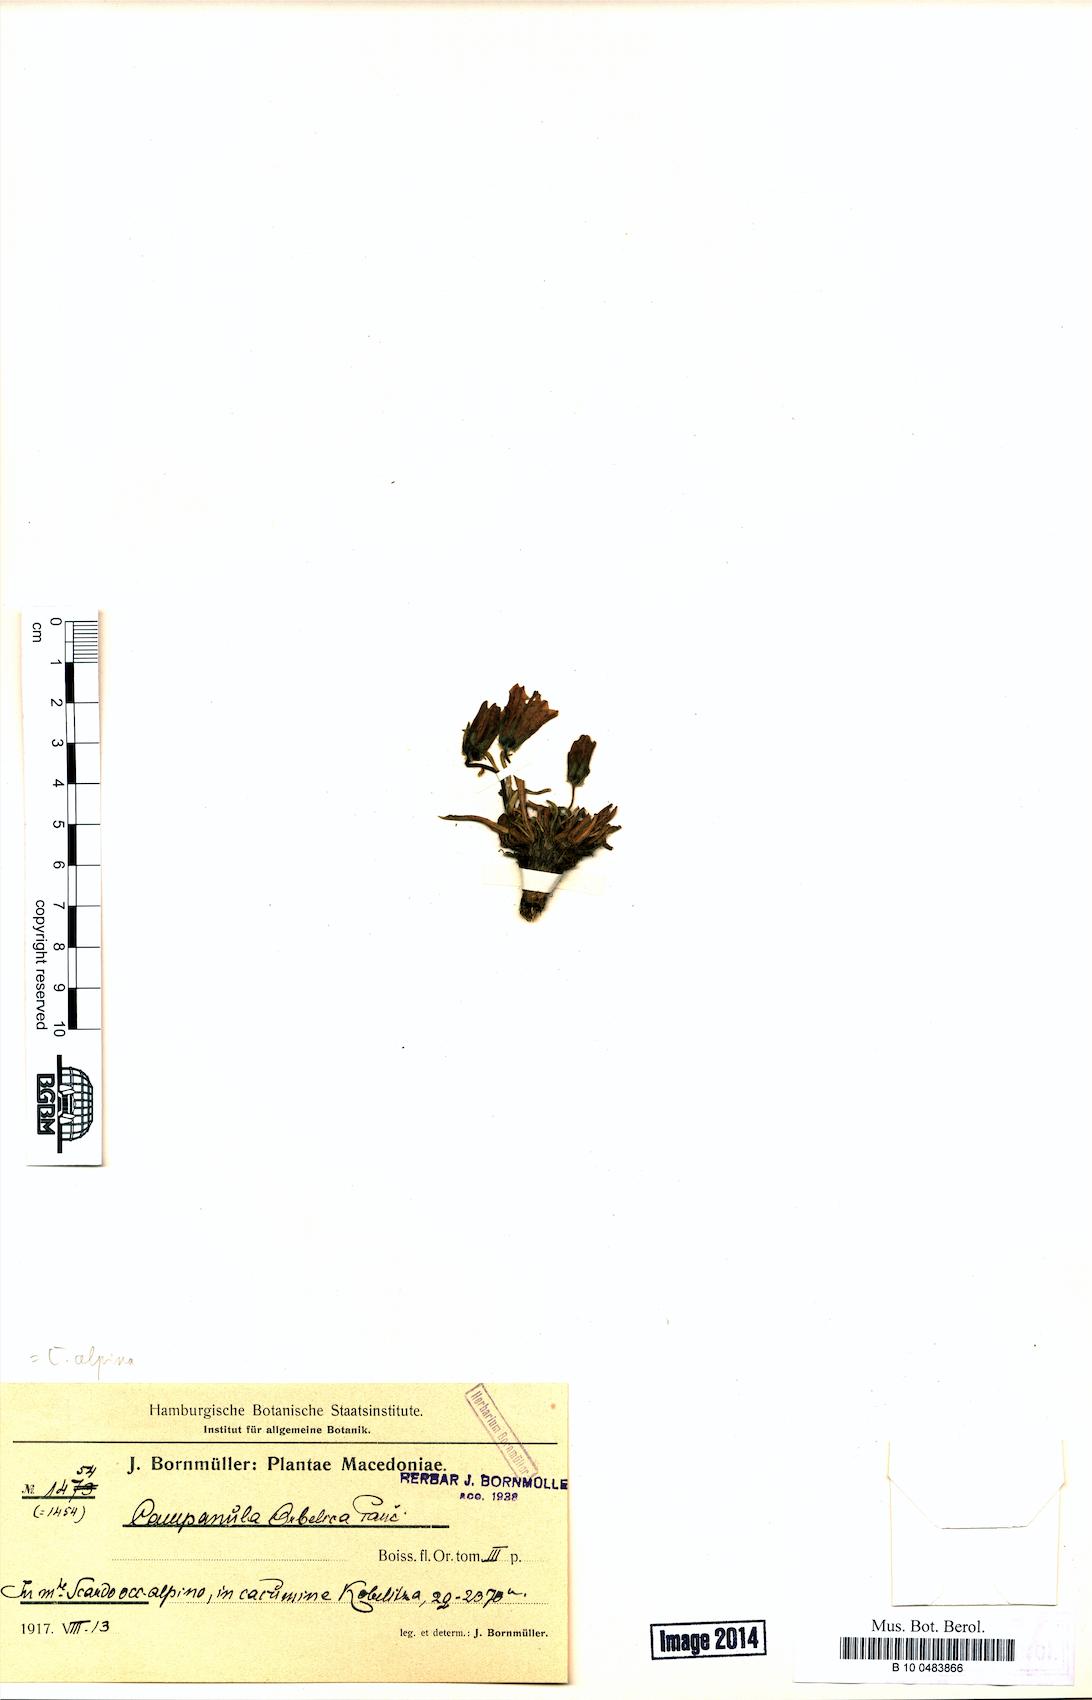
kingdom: Plantae
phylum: Tracheophyta
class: Magnoliopsida
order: Asterales
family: Campanulaceae
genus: Campanula
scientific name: Campanula alpina
